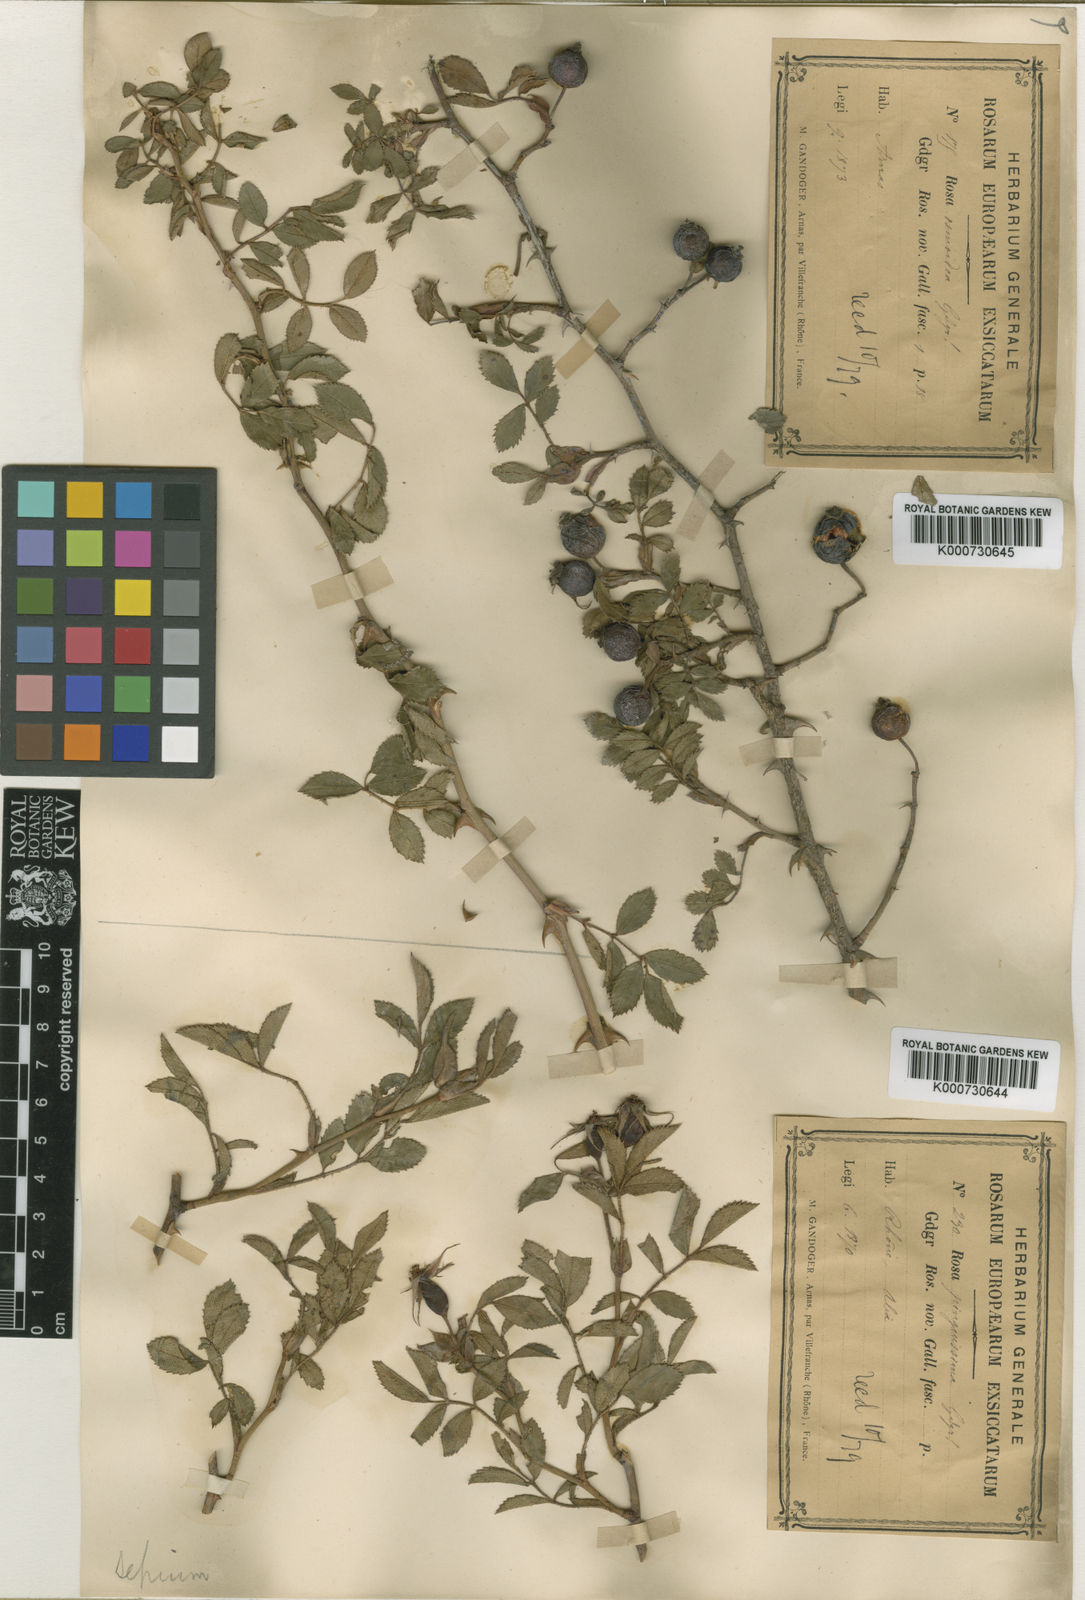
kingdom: Plantae
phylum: Tracheophyta
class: Magnoliopsida
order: Rosales
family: Rosaceae
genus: Rosa
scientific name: Rosa agrestis
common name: Fieldbriar
